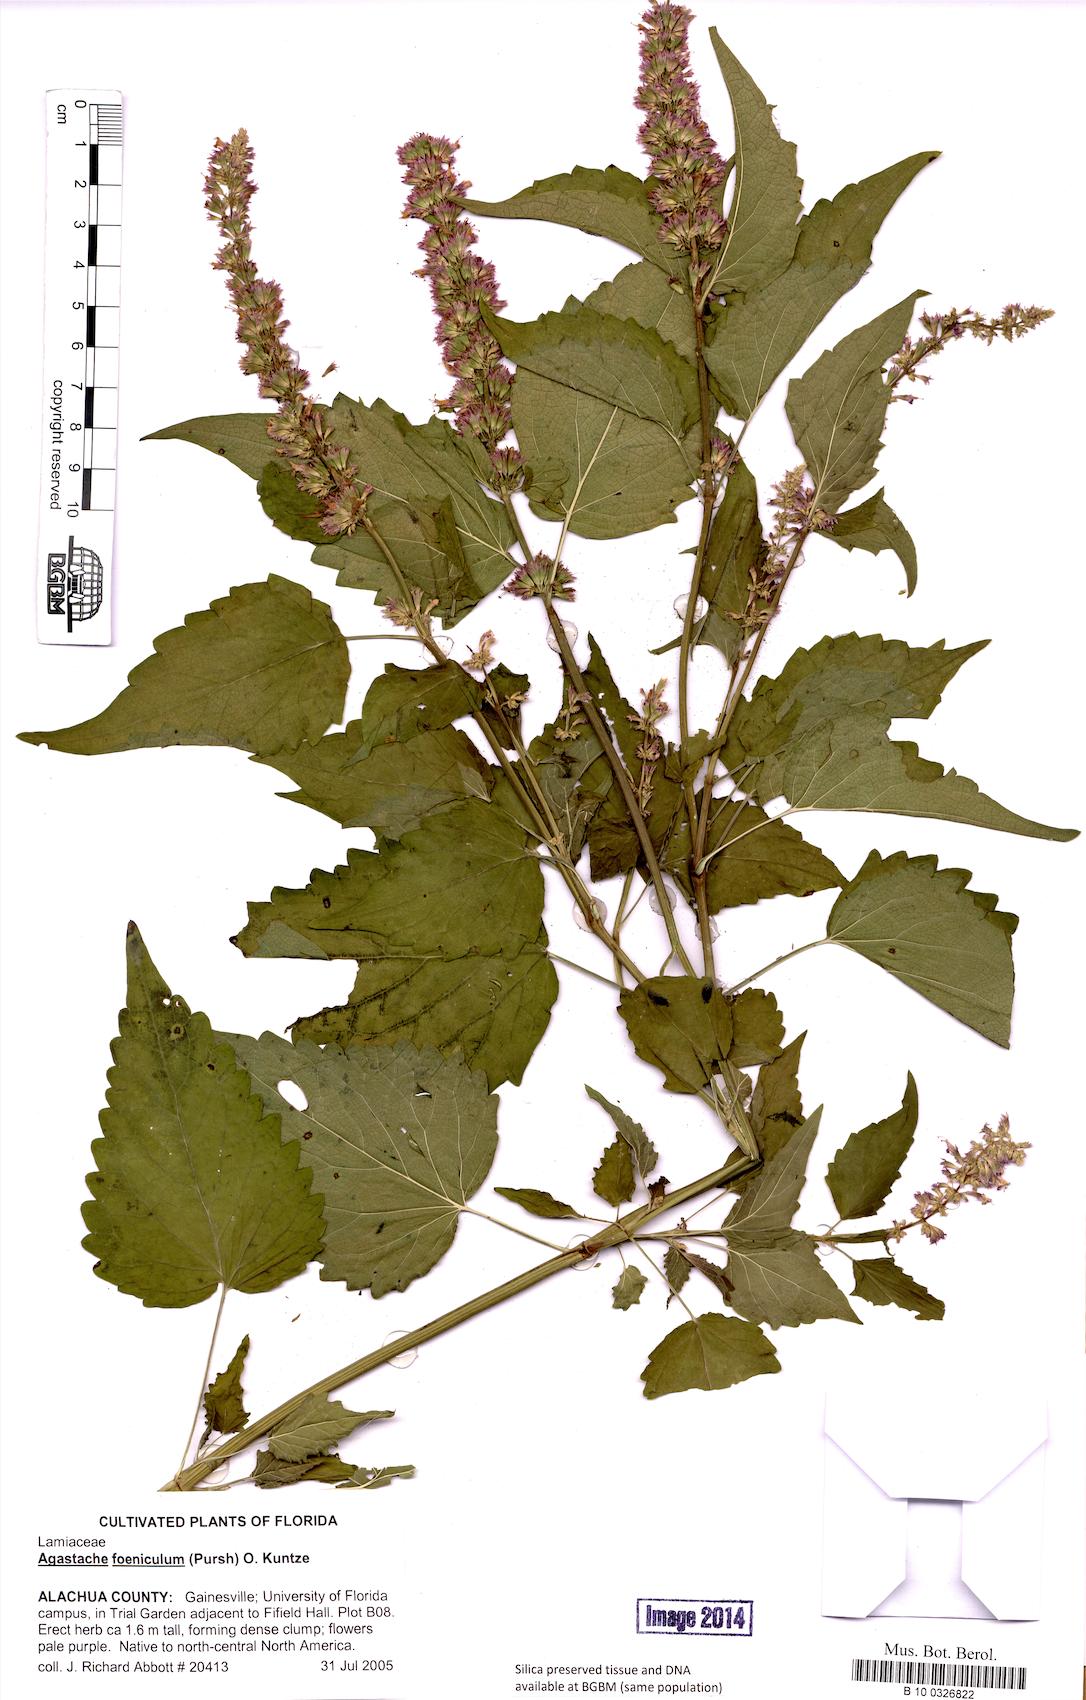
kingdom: Plantae
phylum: Tracheophyta
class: Magnoliopsida
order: Lamiales
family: Lamiaceae
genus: Agastache
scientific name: Agastache foeniculum
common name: Anise hyssop
